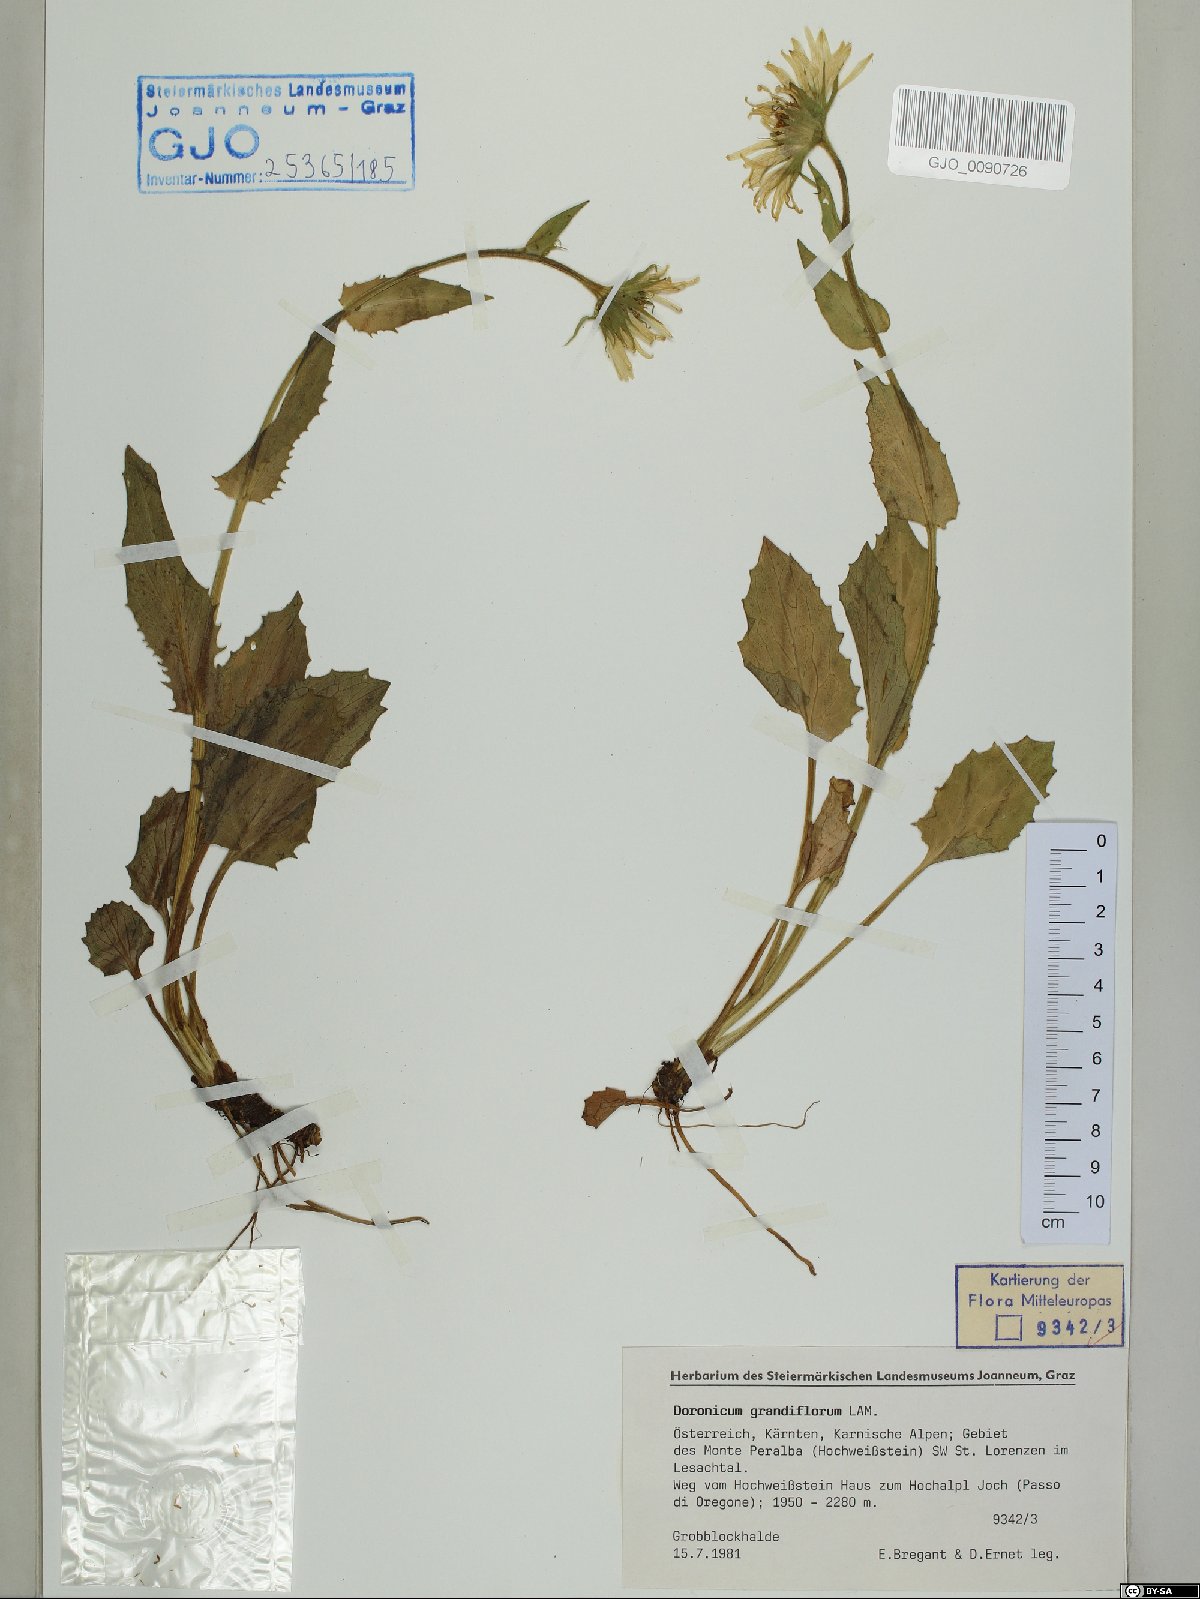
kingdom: Plantae
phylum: Tracheophyta
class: Magnoliopsida
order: Asterales
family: Asteraceae
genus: Doronicum
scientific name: Doronicum grandiflorum
